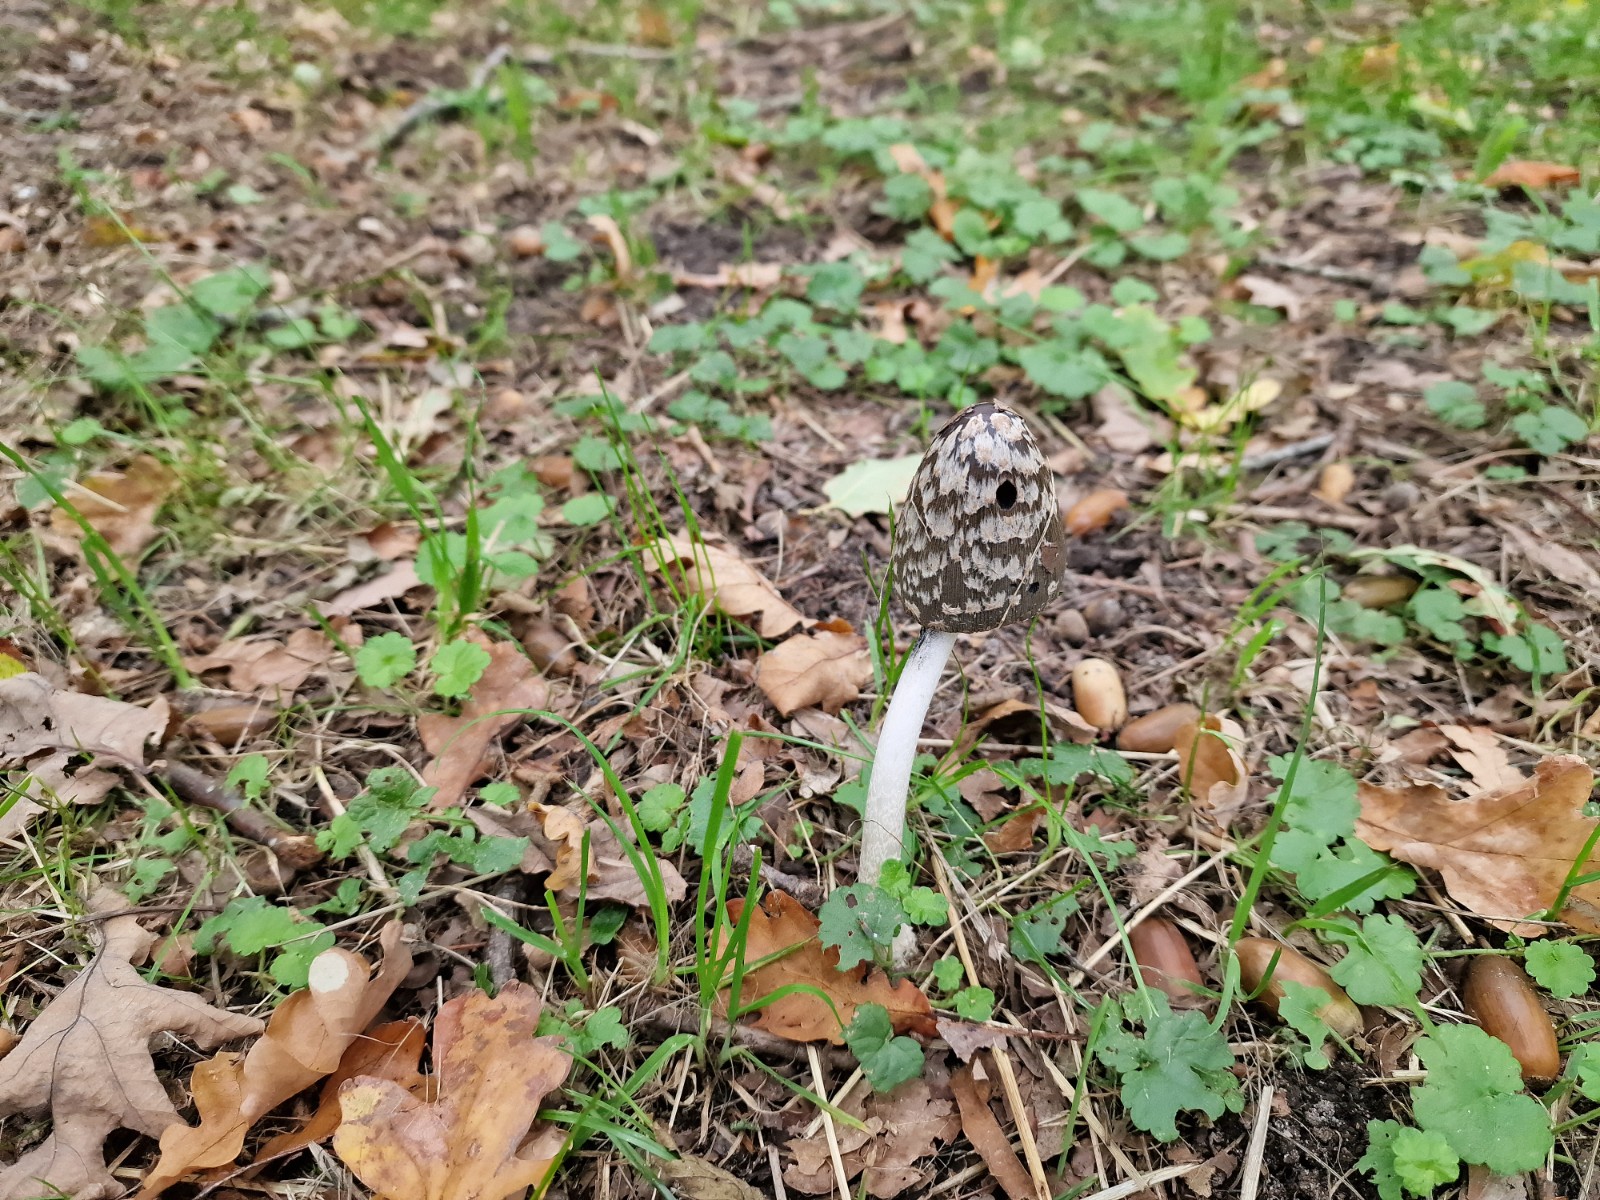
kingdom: Fungi
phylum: Basidiomycota
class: Agaricomycetes
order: Agaricales
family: Psathyrellaceae
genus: Coprinopsis
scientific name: Coprinopsis picacea
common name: skade-blækhat
